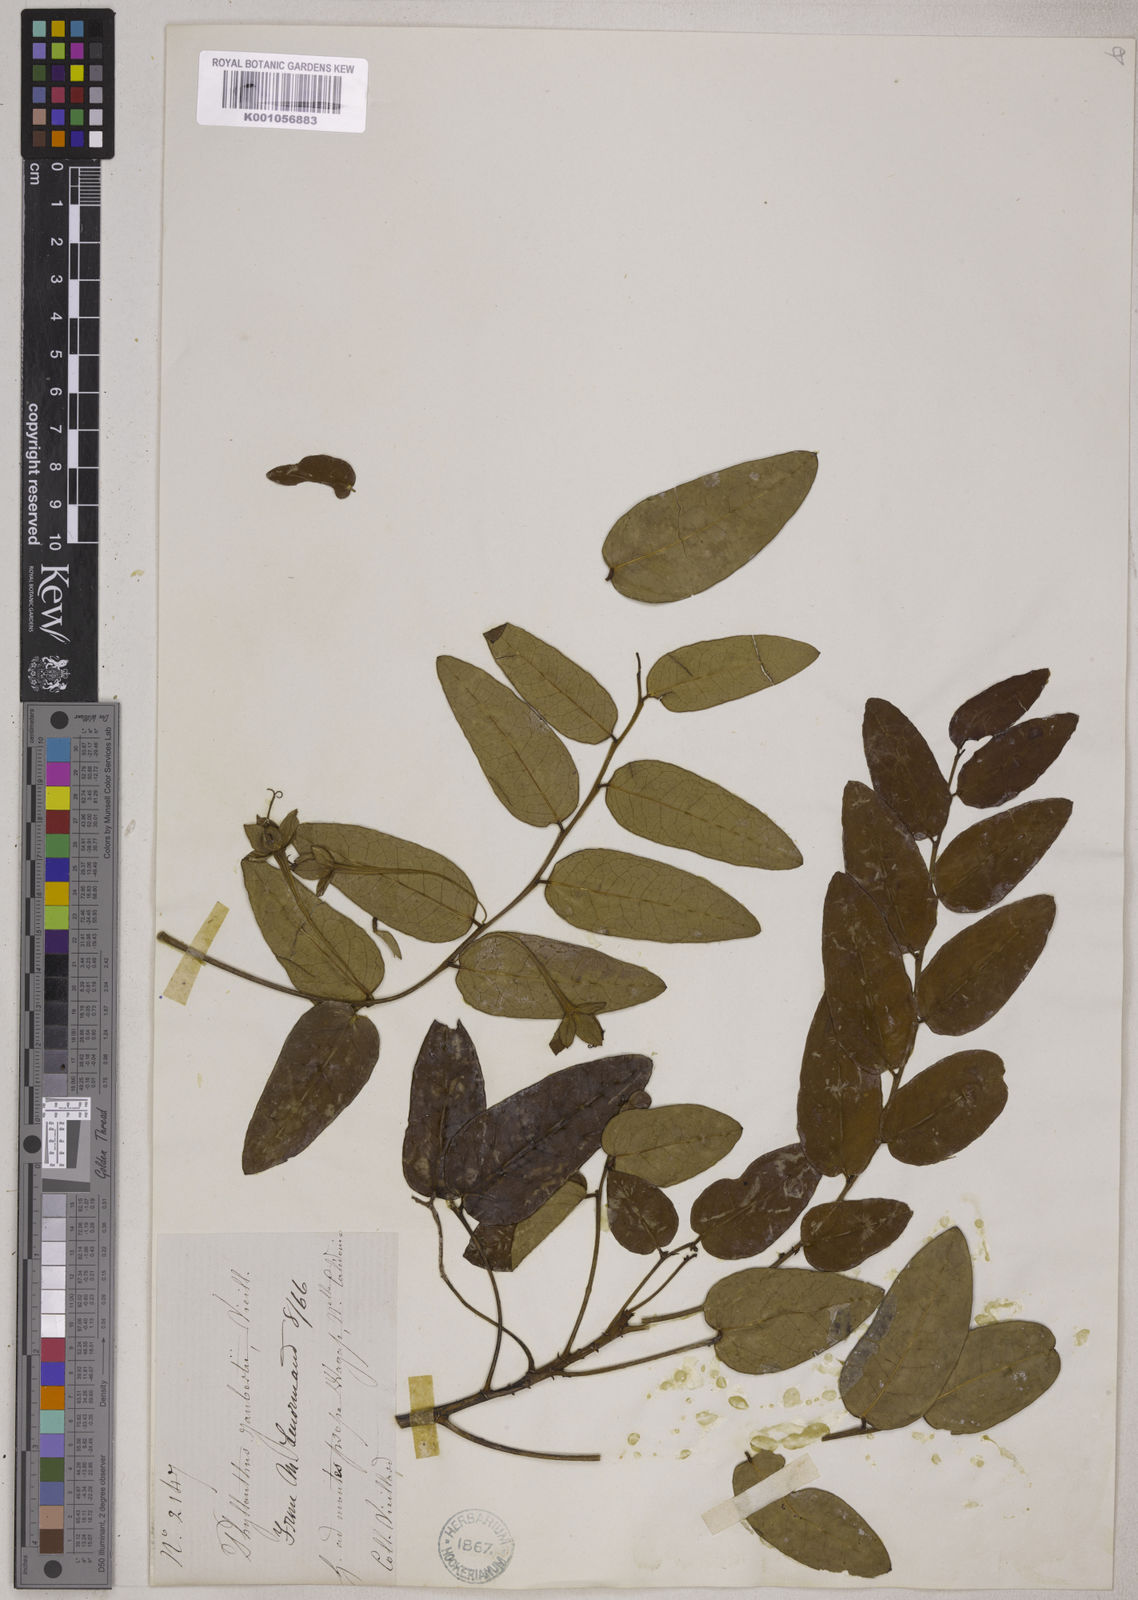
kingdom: Plantae
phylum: Tracheophyta
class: Magnoliopsida
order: Malpighiales
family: Phyllanthaceae
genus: Phyllanthus
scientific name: Phyllanthus jaubertii
